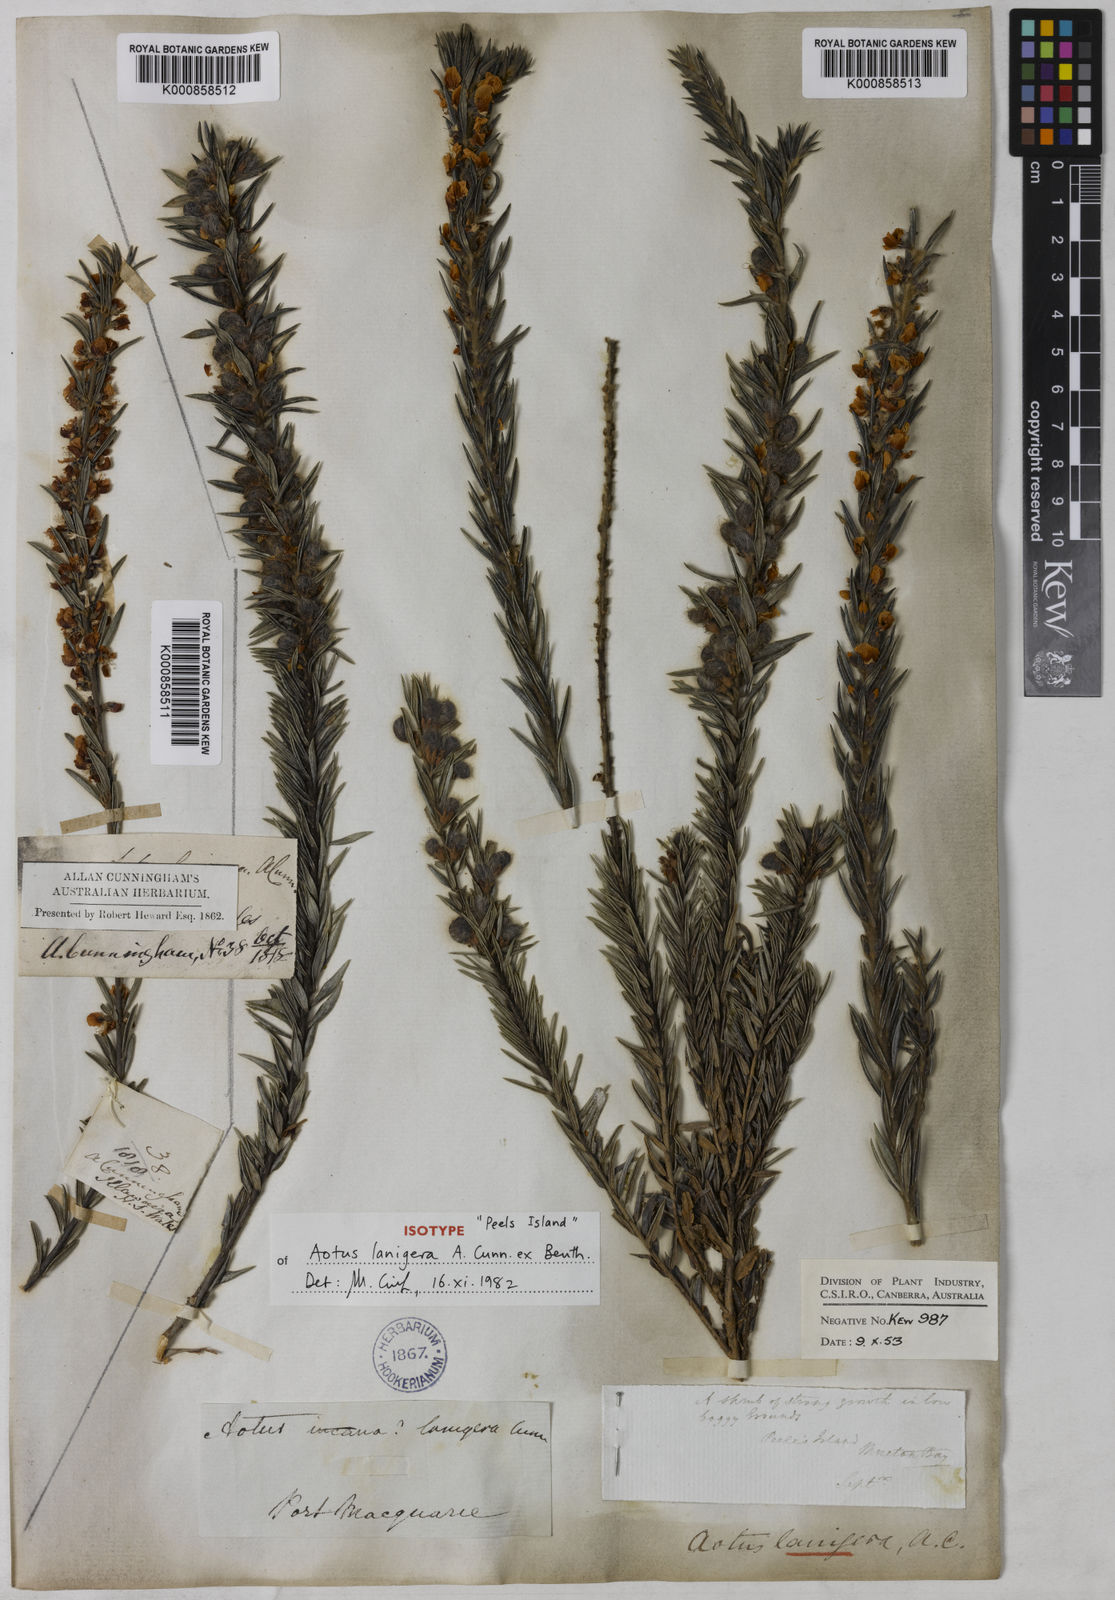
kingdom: Plantae
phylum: Tracheophyta
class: Magnoliopsida
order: Fabales
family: Fabaceae
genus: Aotus
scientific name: Aotus lanigera
